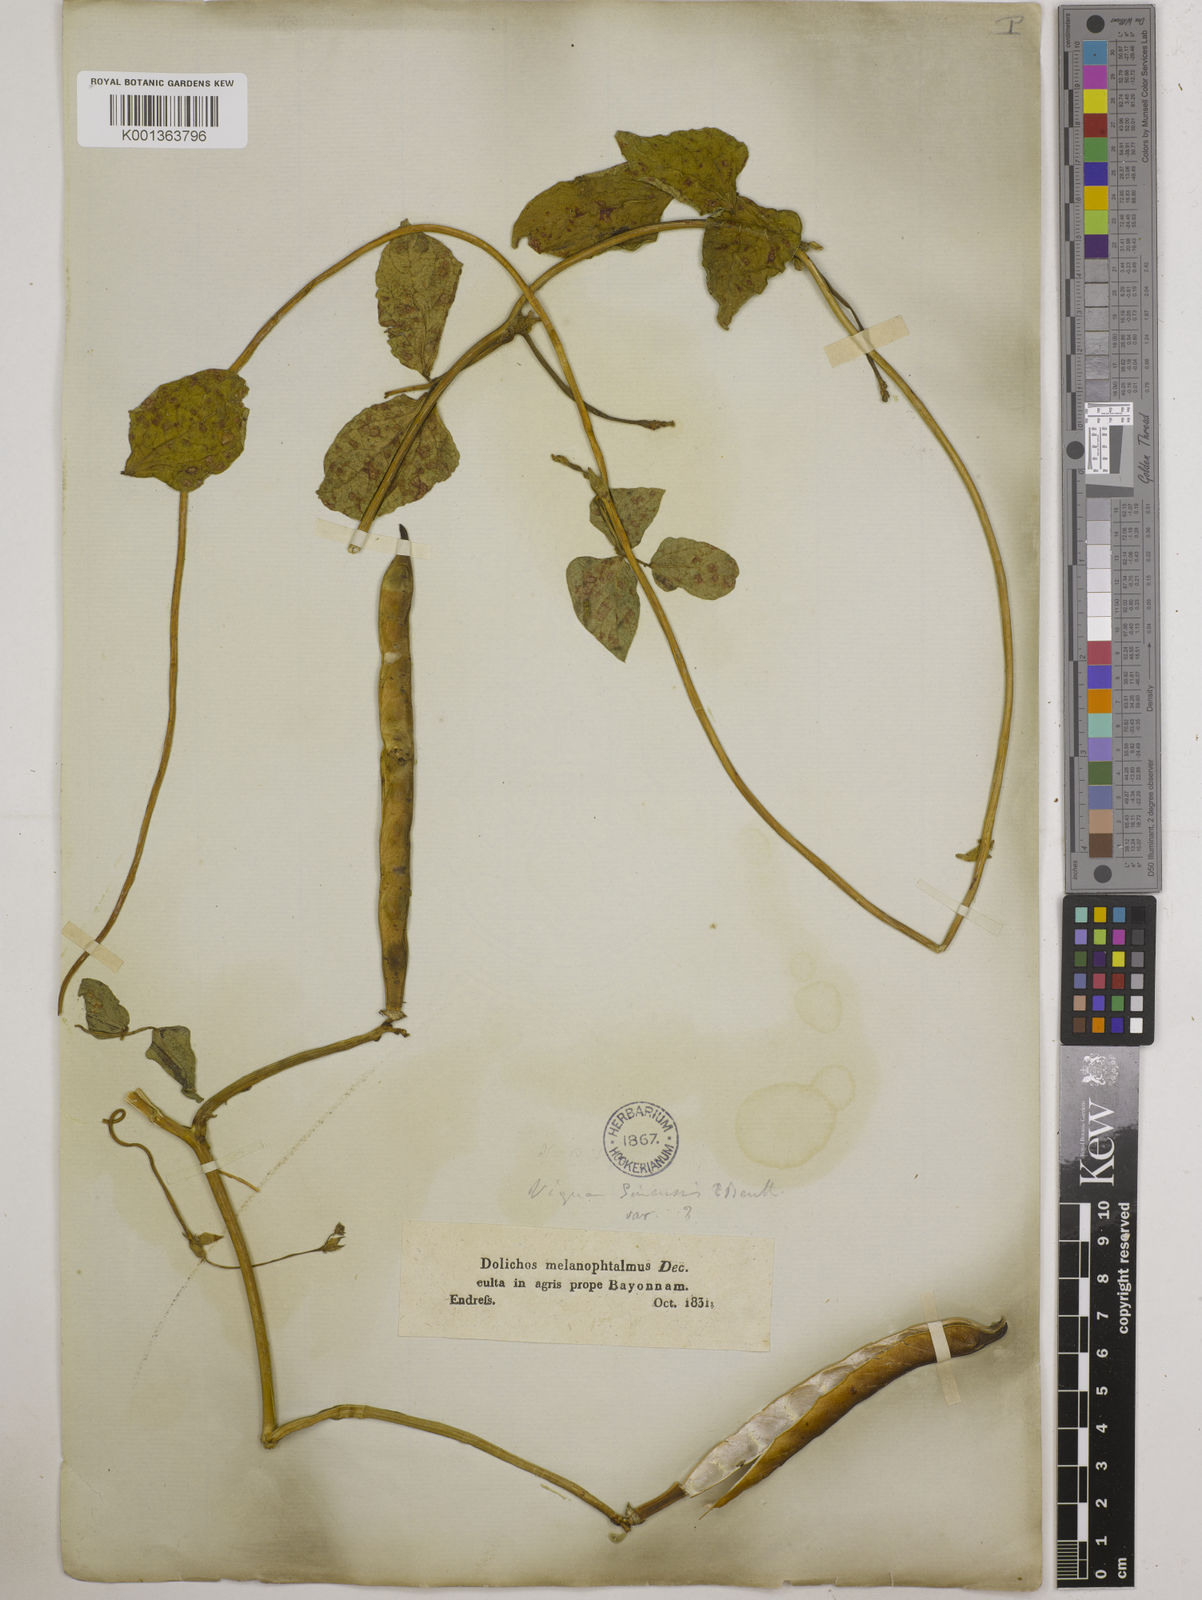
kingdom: Plantae
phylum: Tracheophyta
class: Magnoliopsida
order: Fabales
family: Fabaceae
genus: Vigna
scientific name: Vigna
